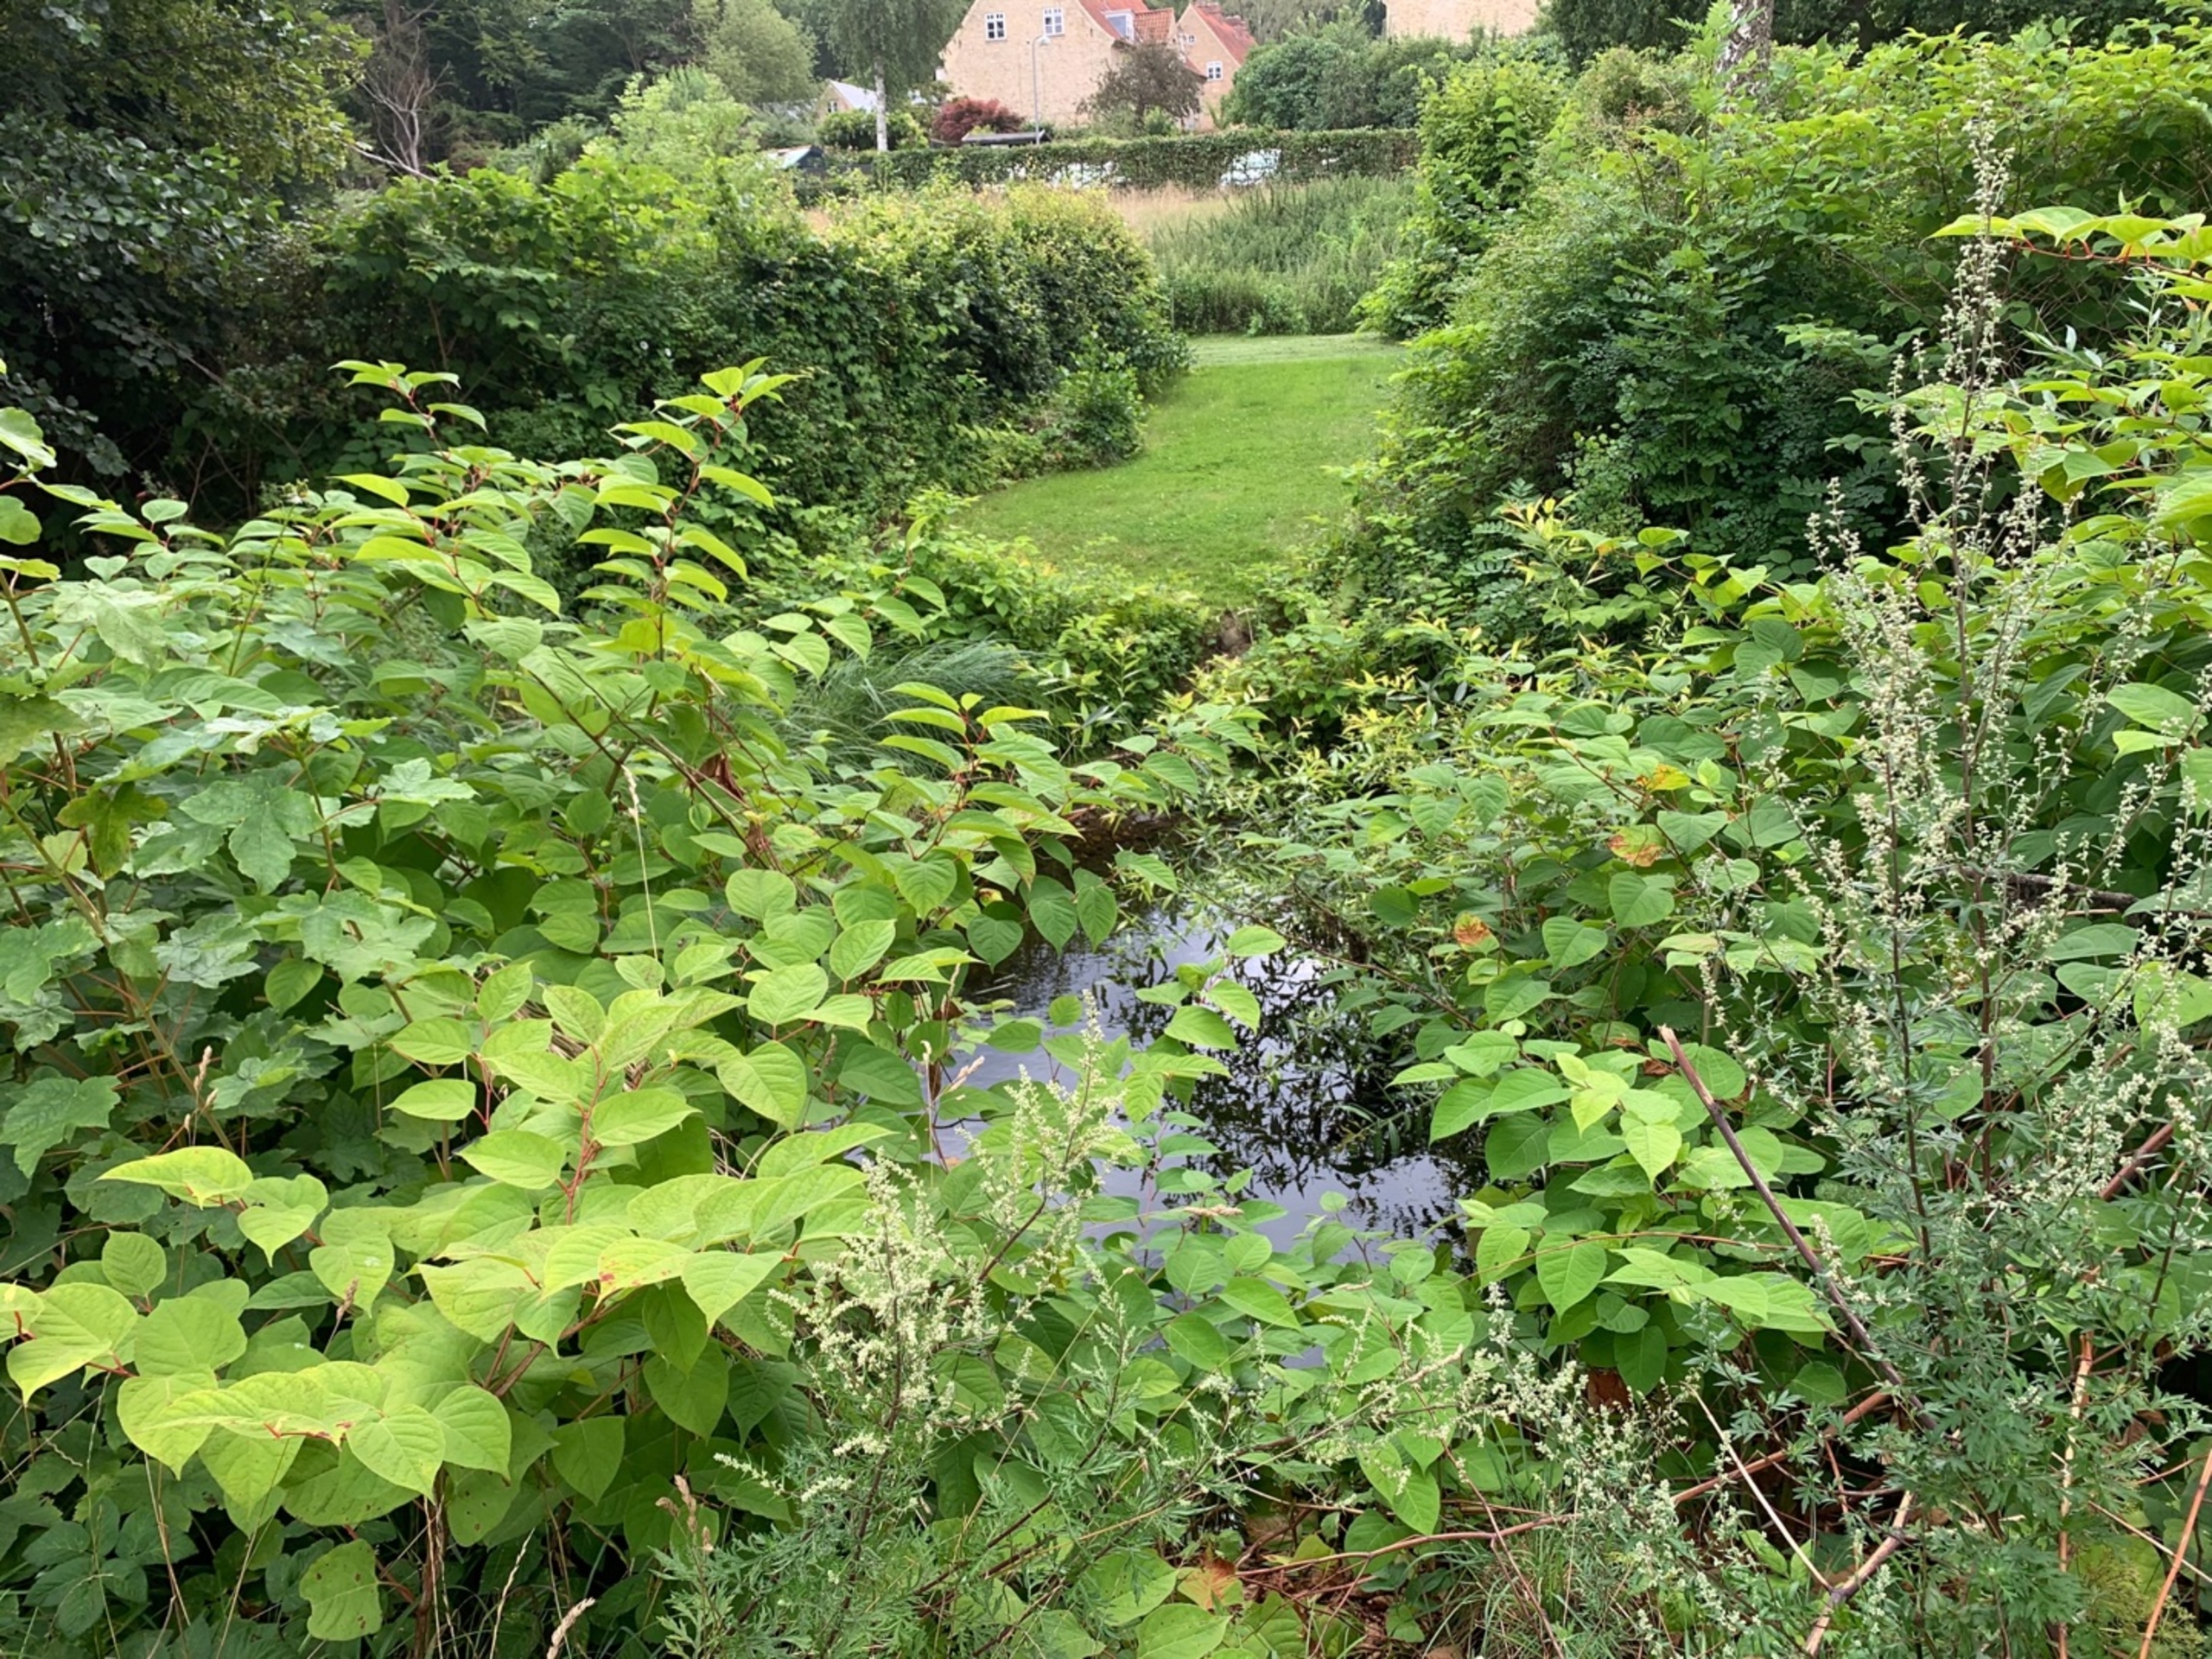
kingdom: Plantae
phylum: Tracheophyta
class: Magnoliopsida
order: Caryophyllales
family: Polygonaceae
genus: Reynoutria
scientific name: Reynoutria japonica
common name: Japan-pileurt
